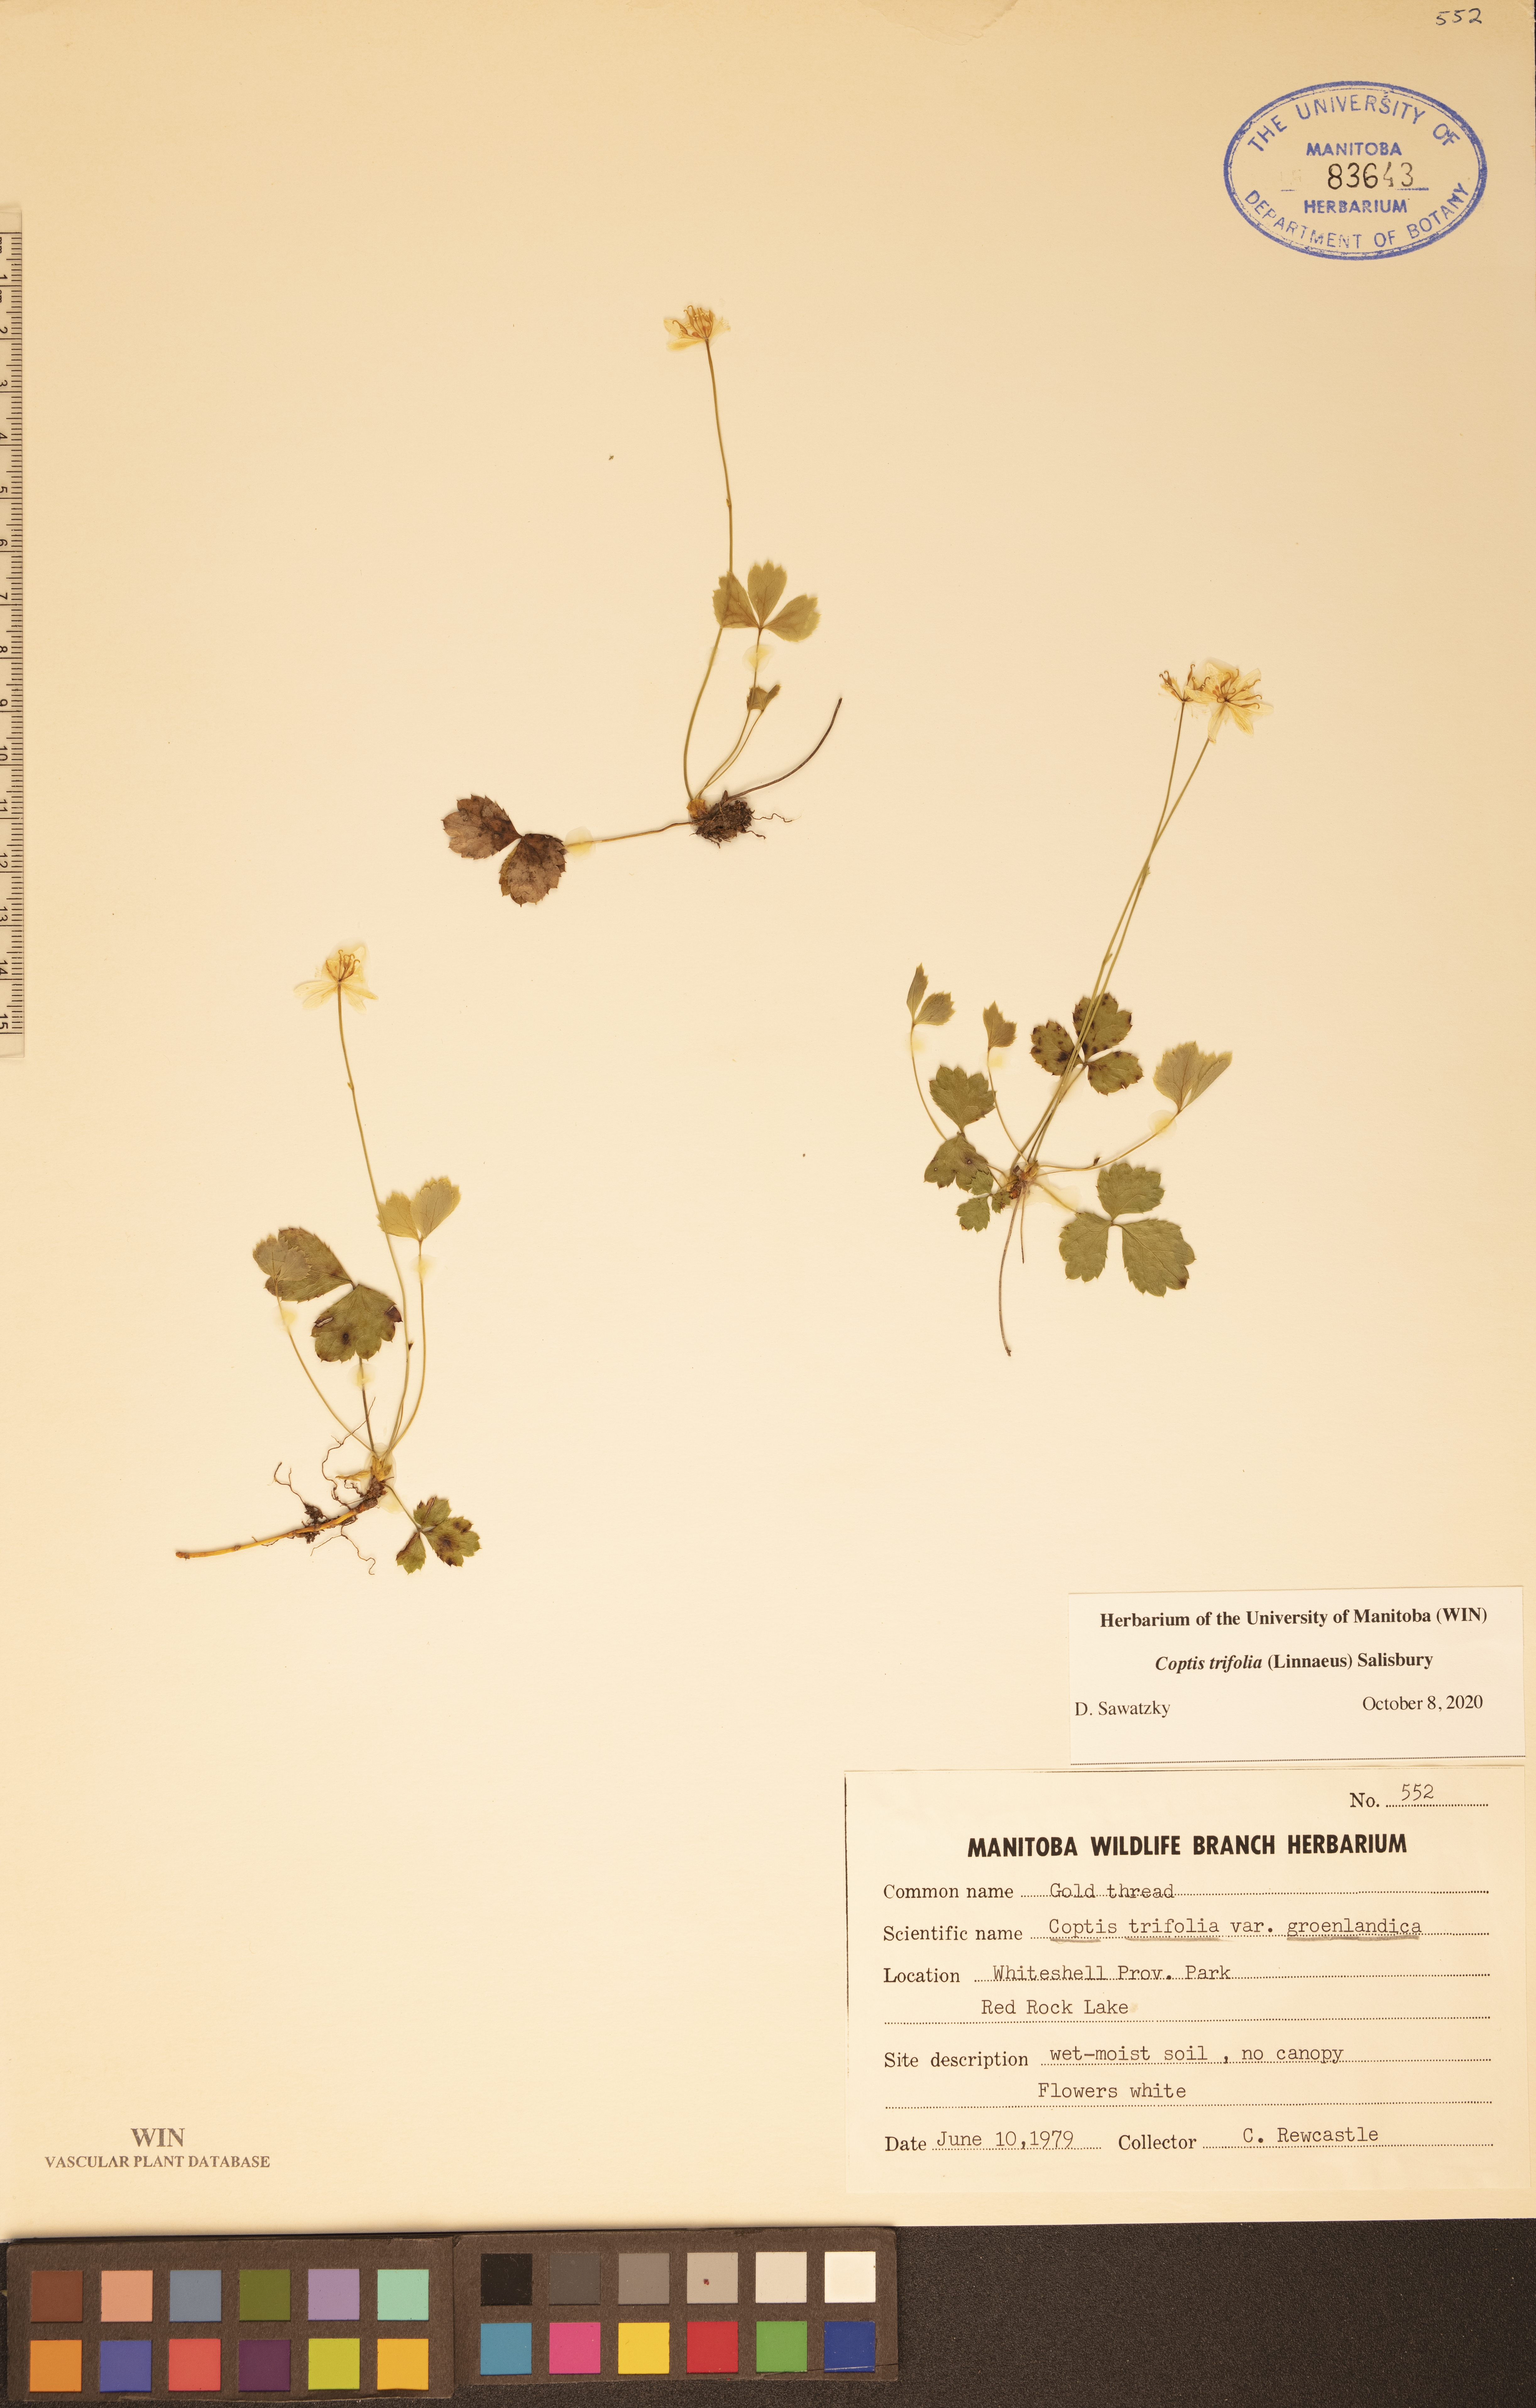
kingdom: Plantae
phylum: Tracheophyta
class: Magnoliopsida
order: Ranunculales
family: Ranunculaceae
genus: Coptis
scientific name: Coptis trifolia
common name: Canker-root
